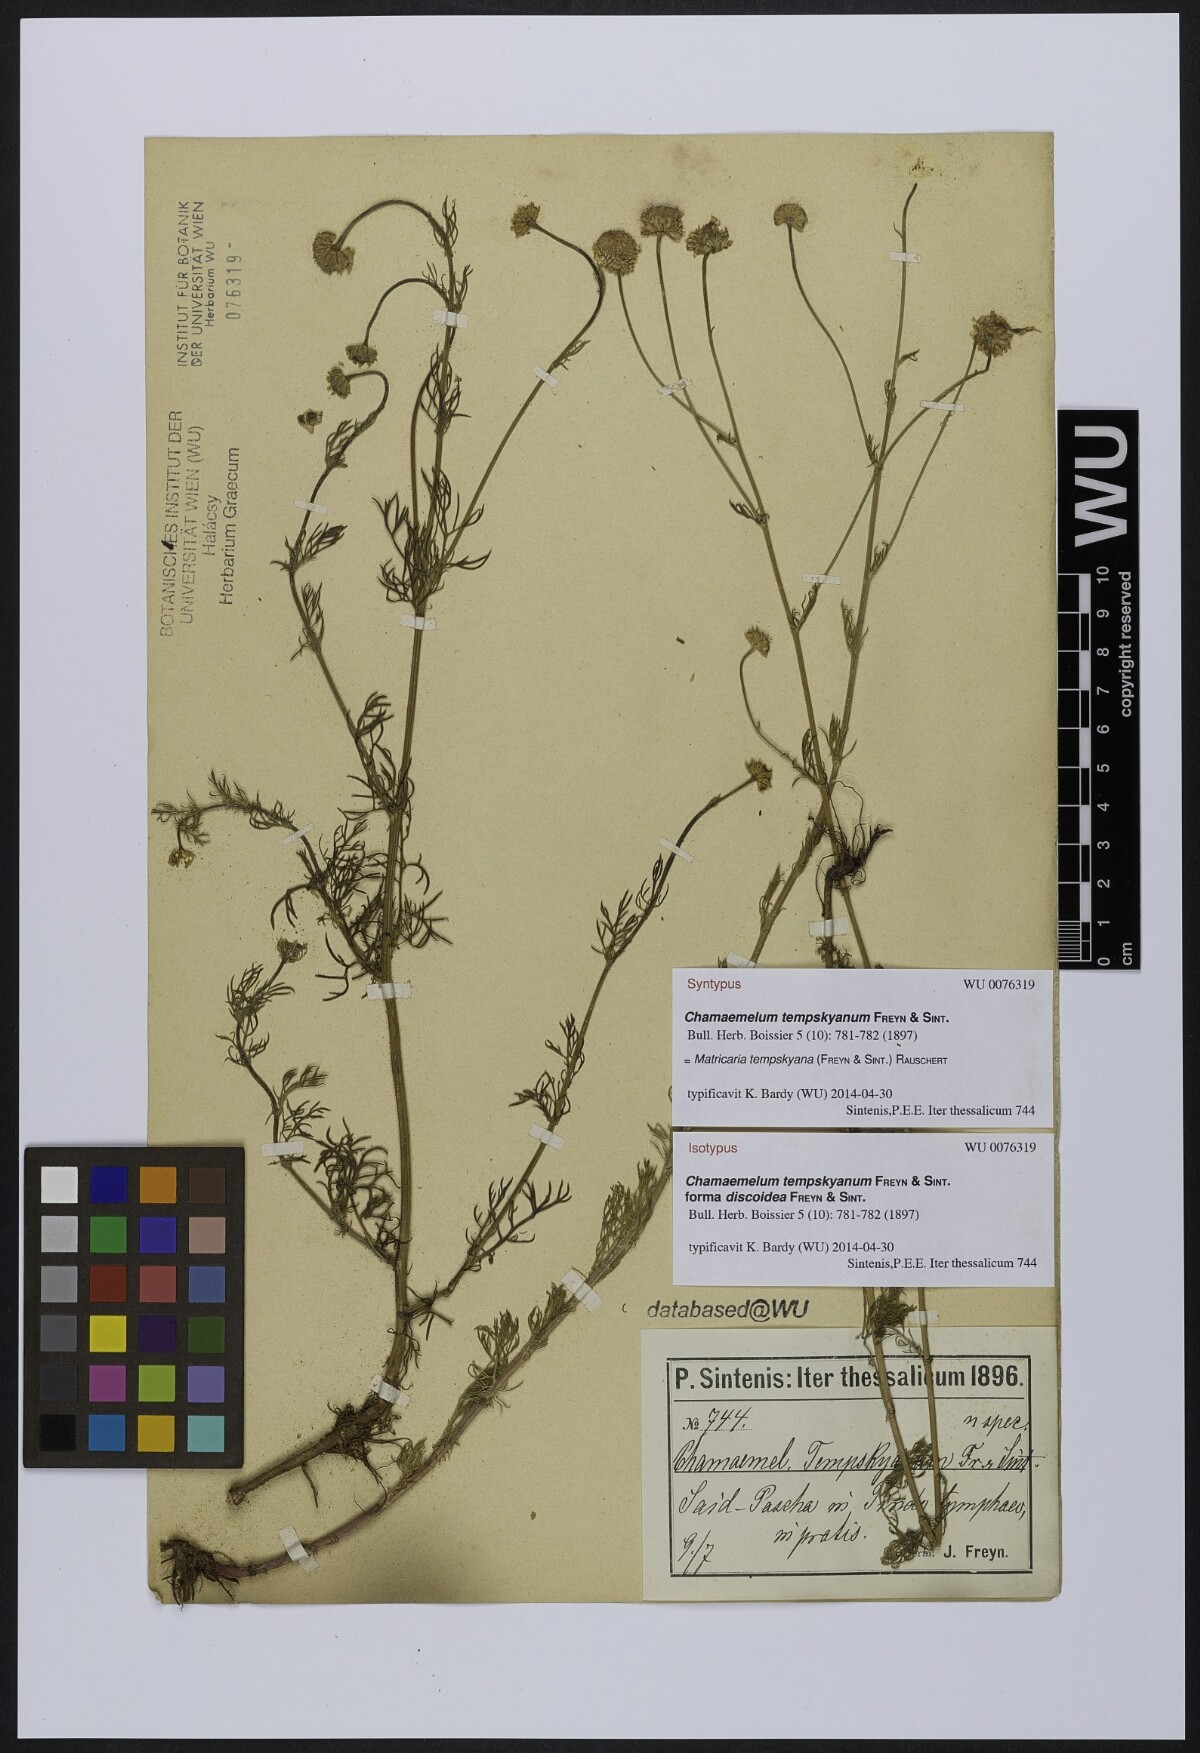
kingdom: Plantae
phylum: Tracheophyta
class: Magnoliopsida
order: Asterales
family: Asteraceae
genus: Tripleurospermum
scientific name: Tripleurospermum tempskyanum
